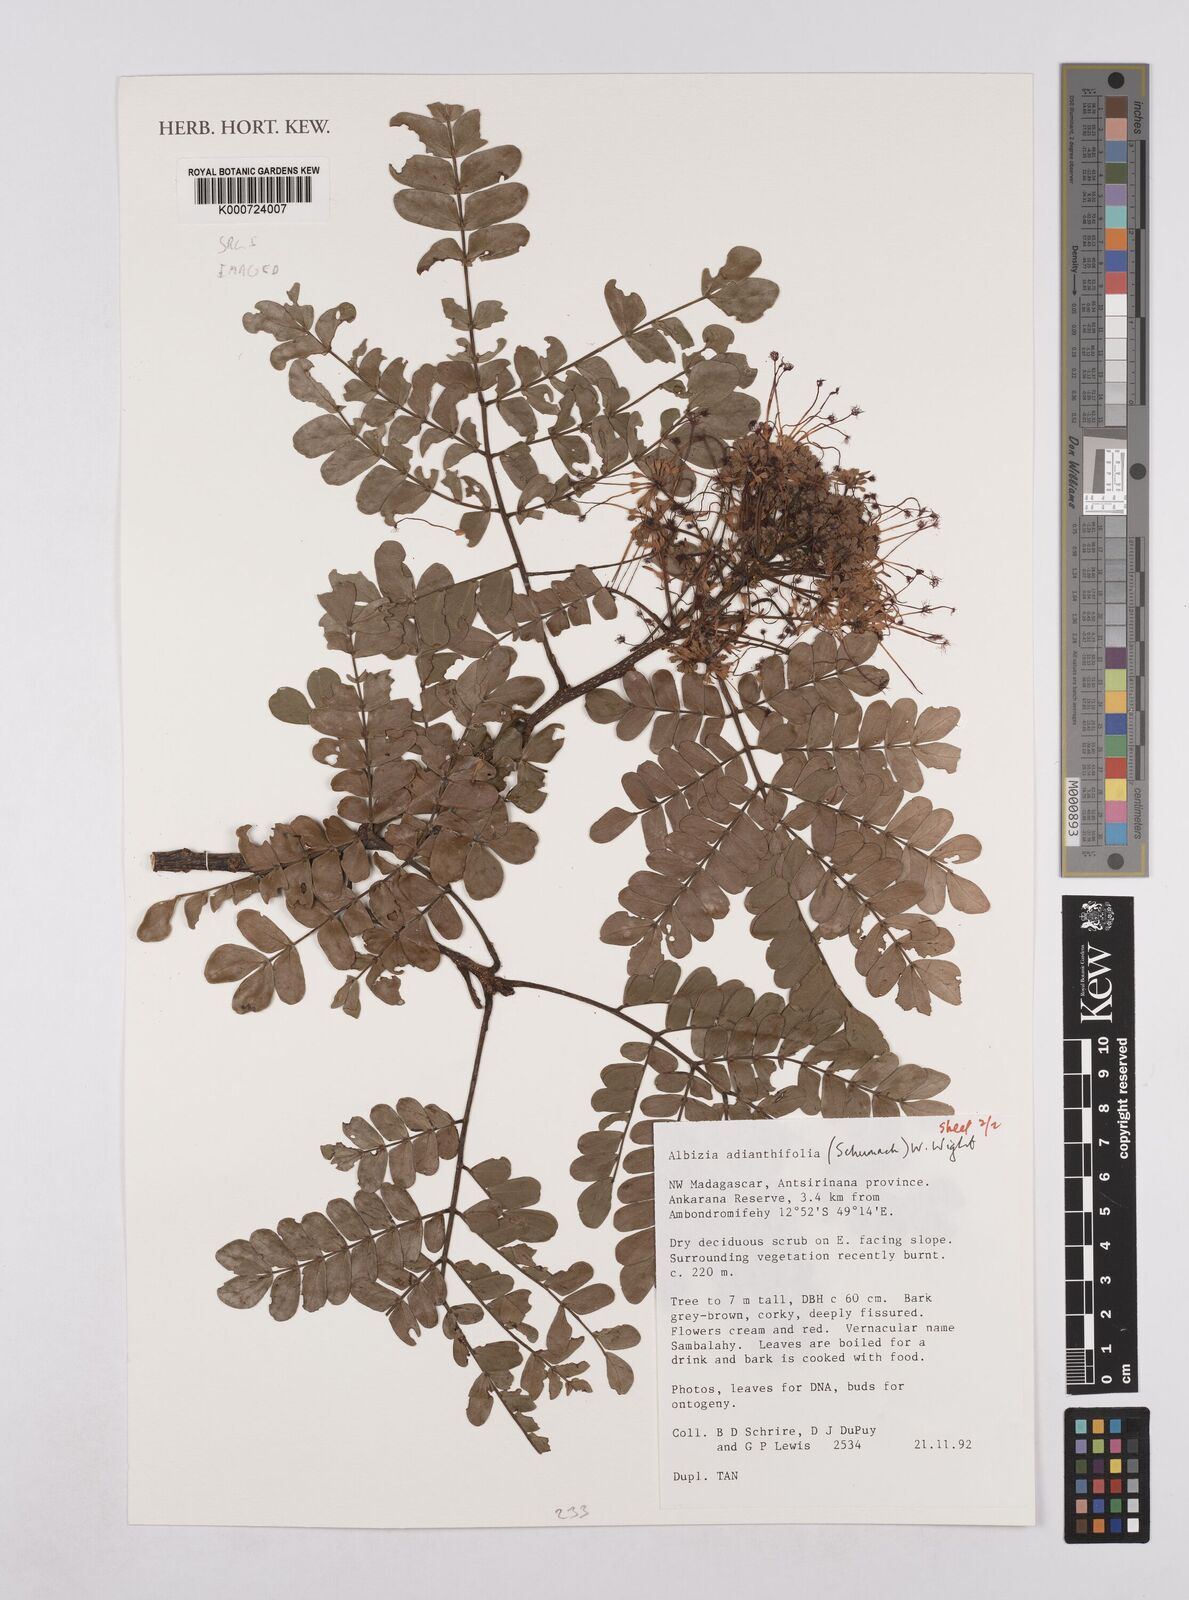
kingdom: Plantae
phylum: Tracheophyta
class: Magnoliopsida
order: Fabales
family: Fabaceae
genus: Albizia
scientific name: Albizia adianthifolia
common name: West african albizia
